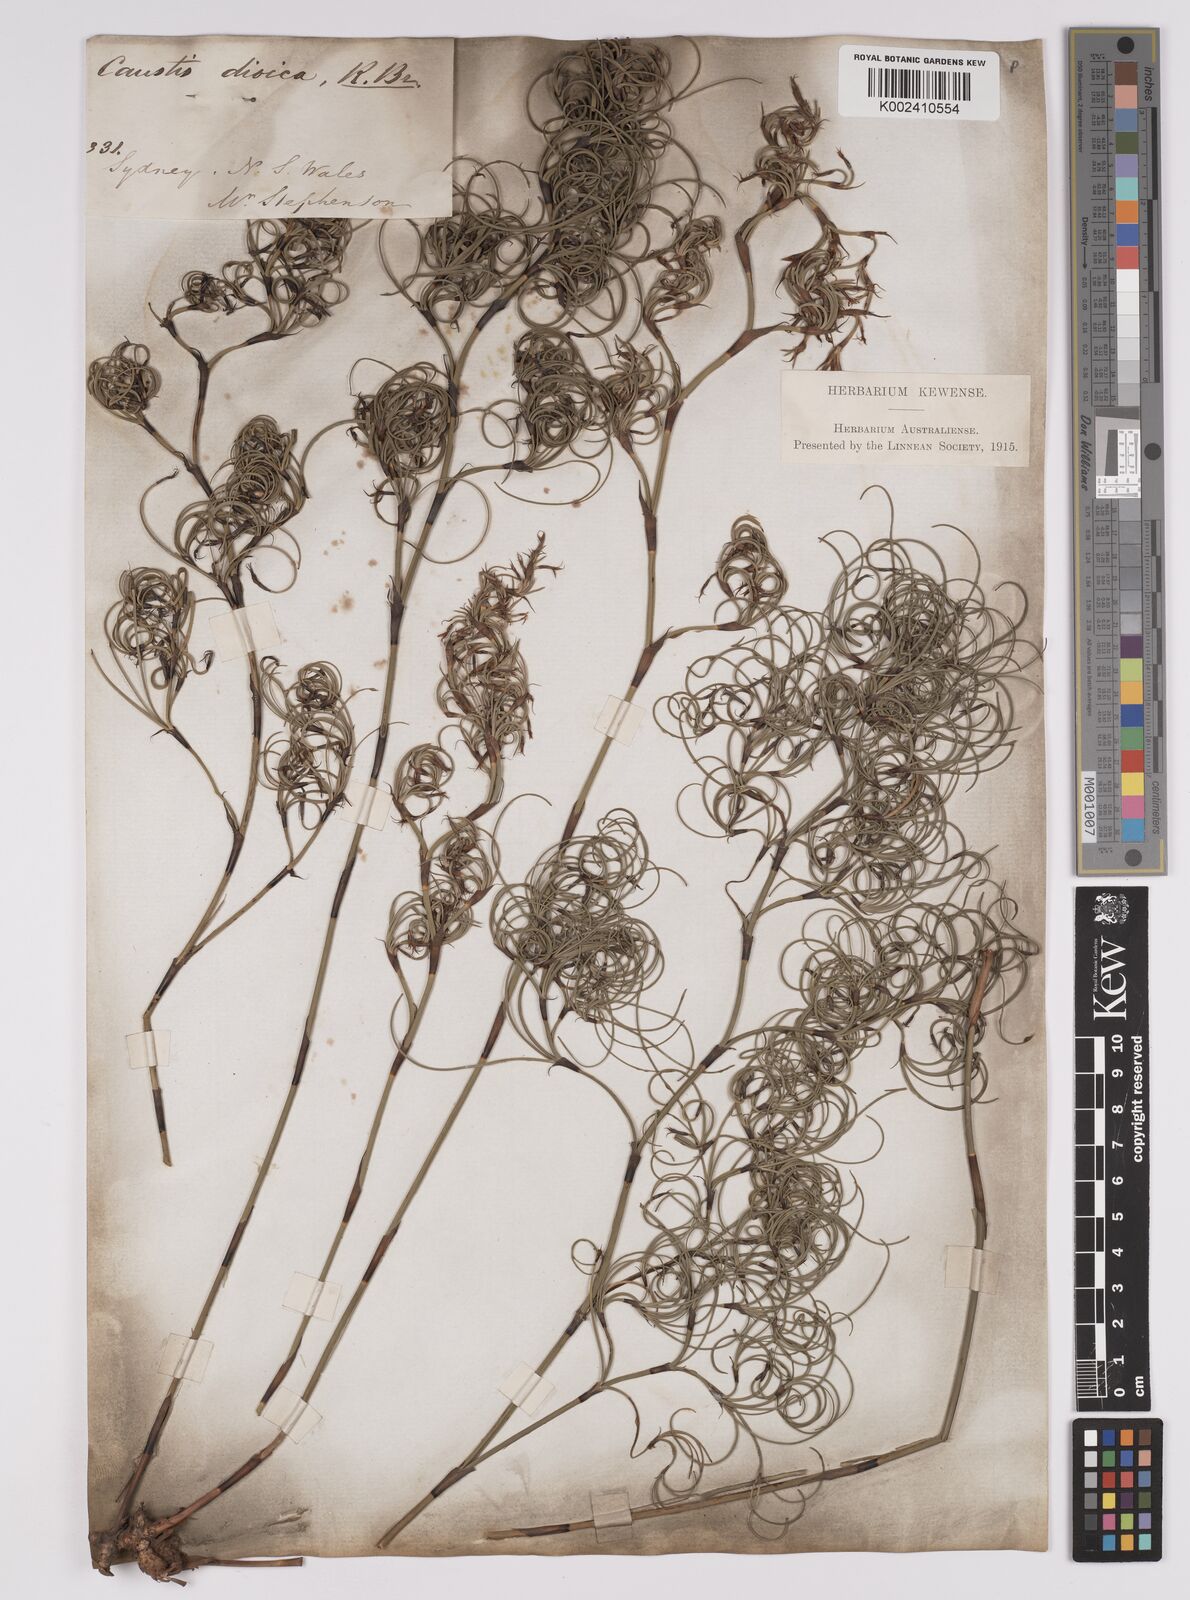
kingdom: Plantae
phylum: Tracheophyta
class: Liliopsida
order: Poales
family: Cyperaceae
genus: Caustis
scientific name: Caustis dioica
